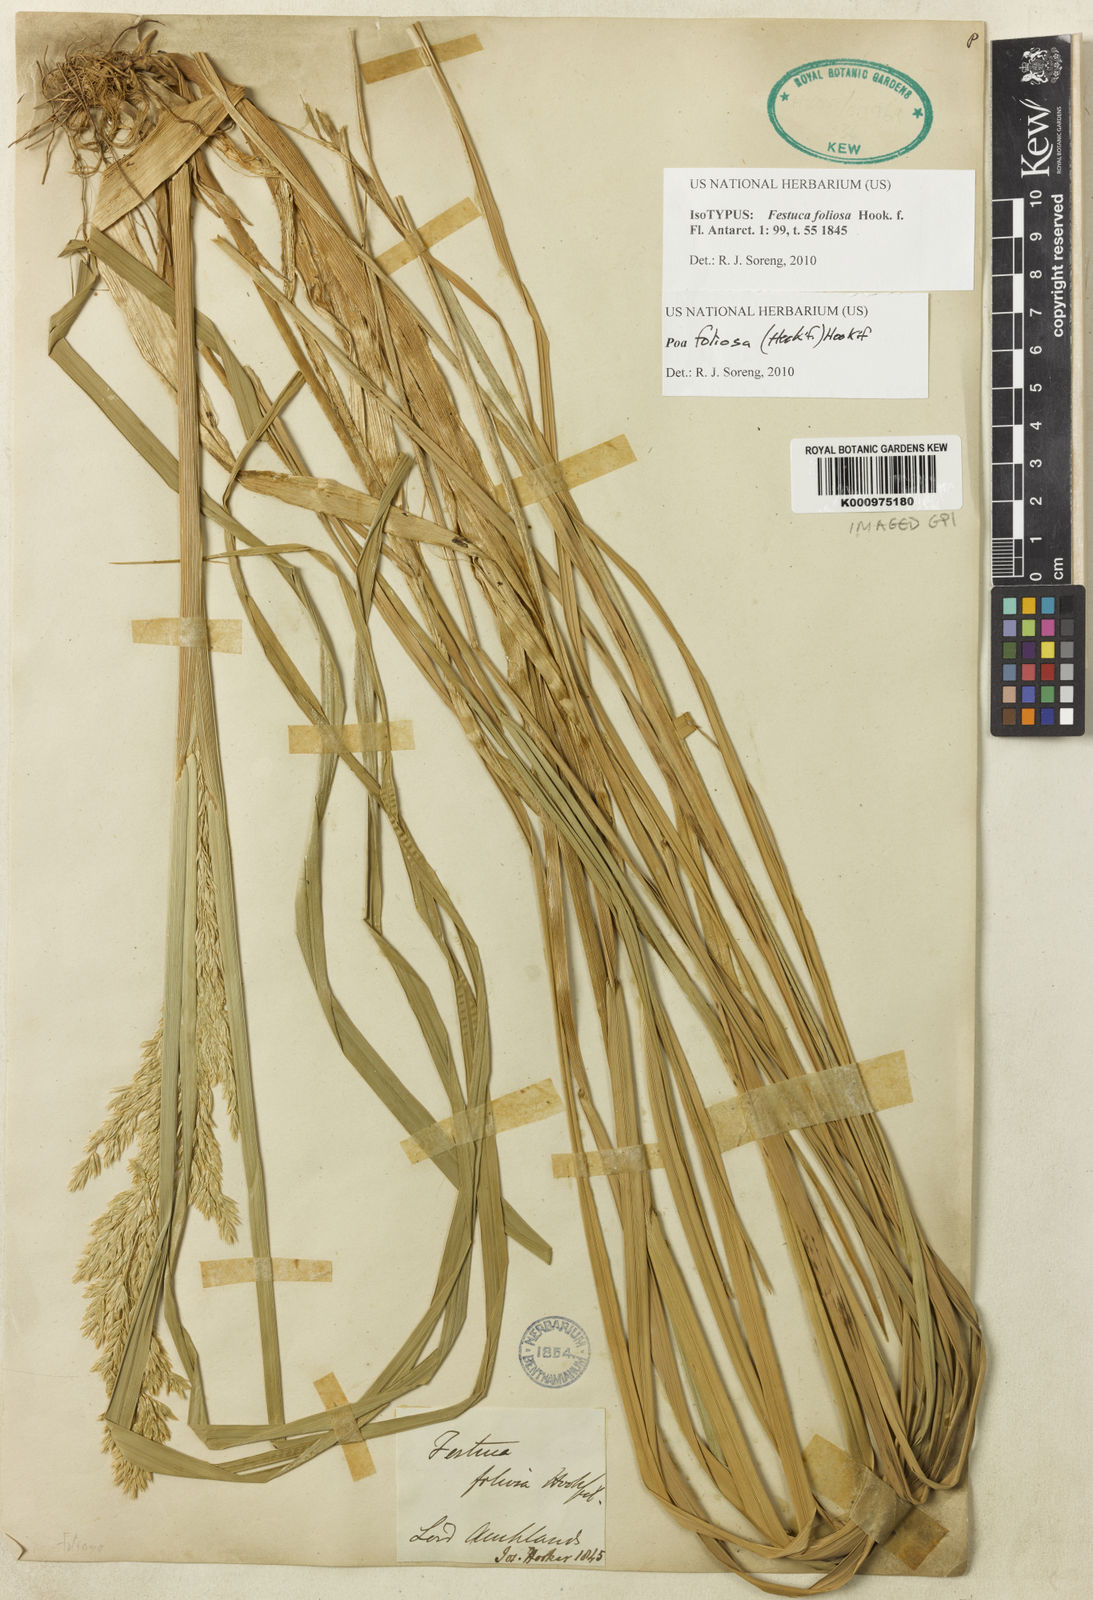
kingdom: Plantae
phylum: Tracheophyta
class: Liliopsida
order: Poales
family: Poaceae
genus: Poa
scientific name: Poa foliosa
